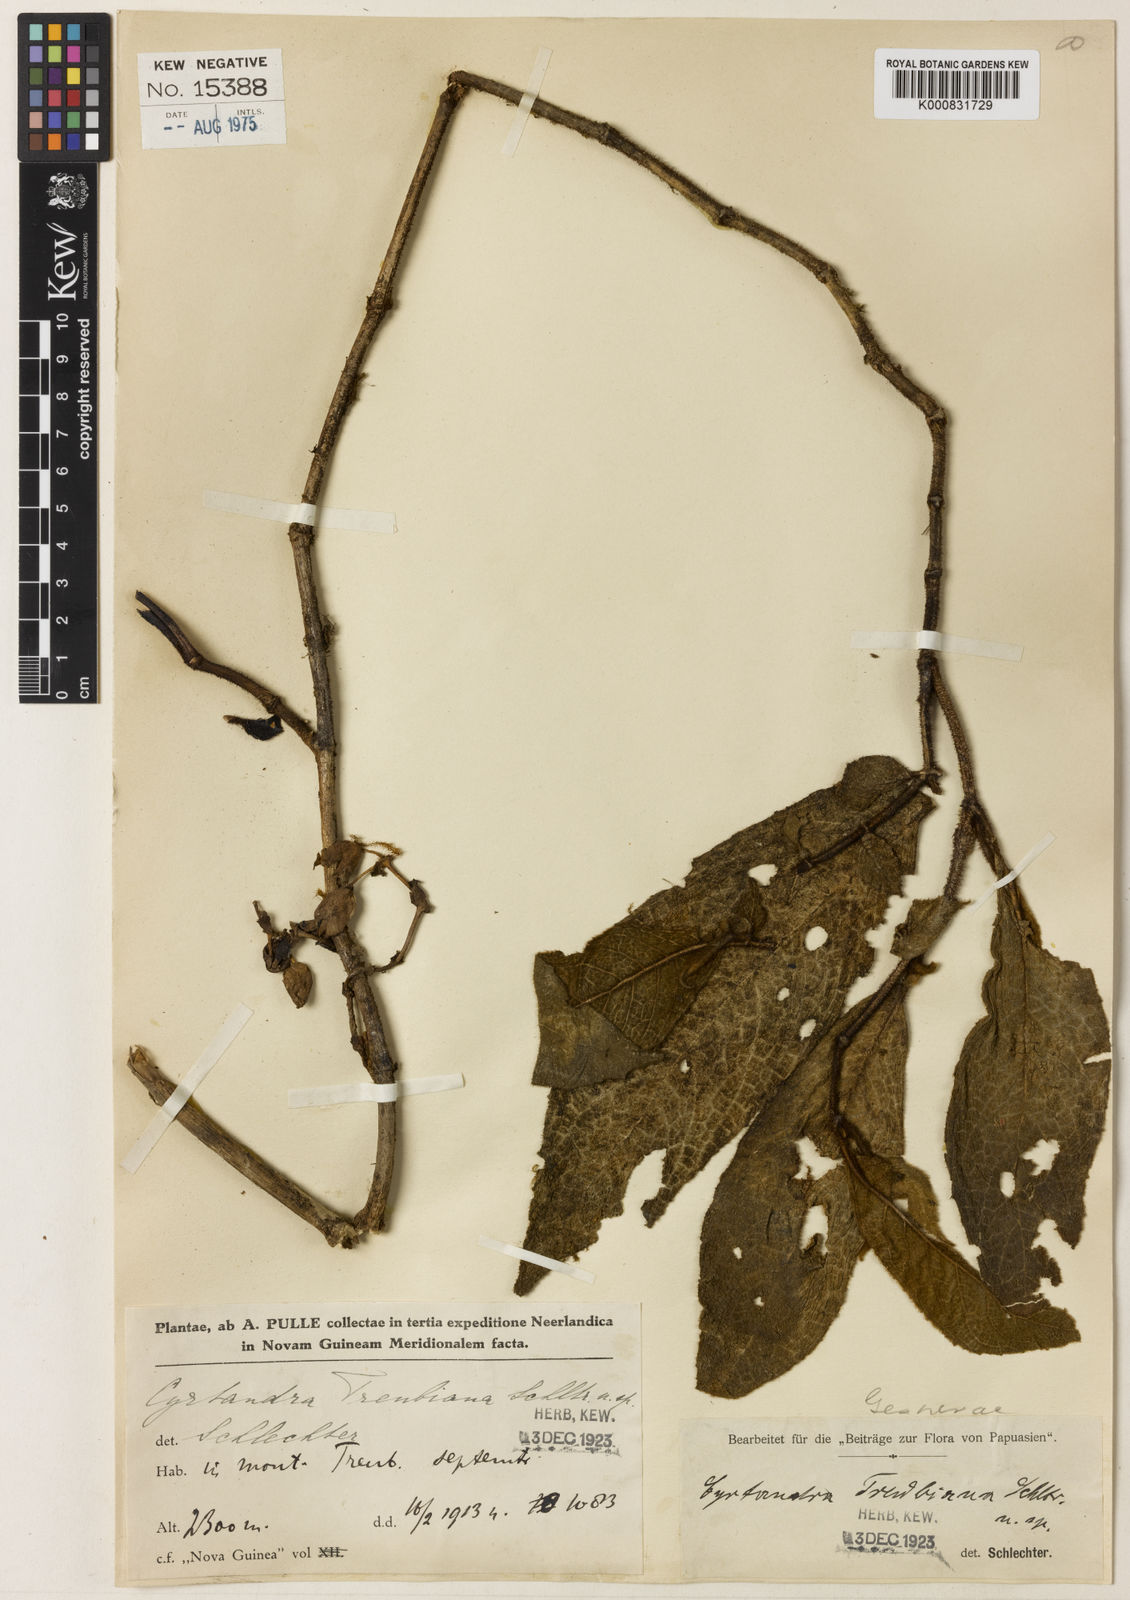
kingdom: Plantae
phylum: Tracheophyta
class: Magnoliopsida
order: Lamiales
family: Gesneriaceae
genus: Cyrtandra
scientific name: Cyrtandra treubiana
